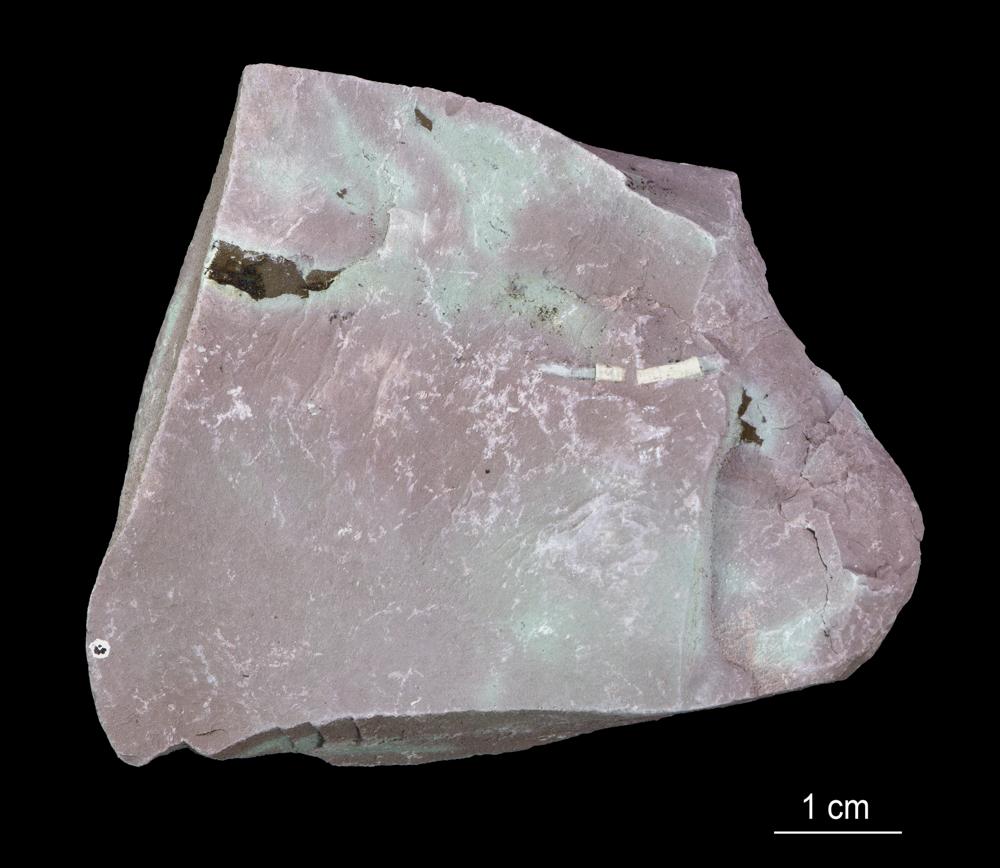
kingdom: Chromista
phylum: Foraminifera
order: Astrorhizida
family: Hyperamminidae
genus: Platysolenites
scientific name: Platysolenites
